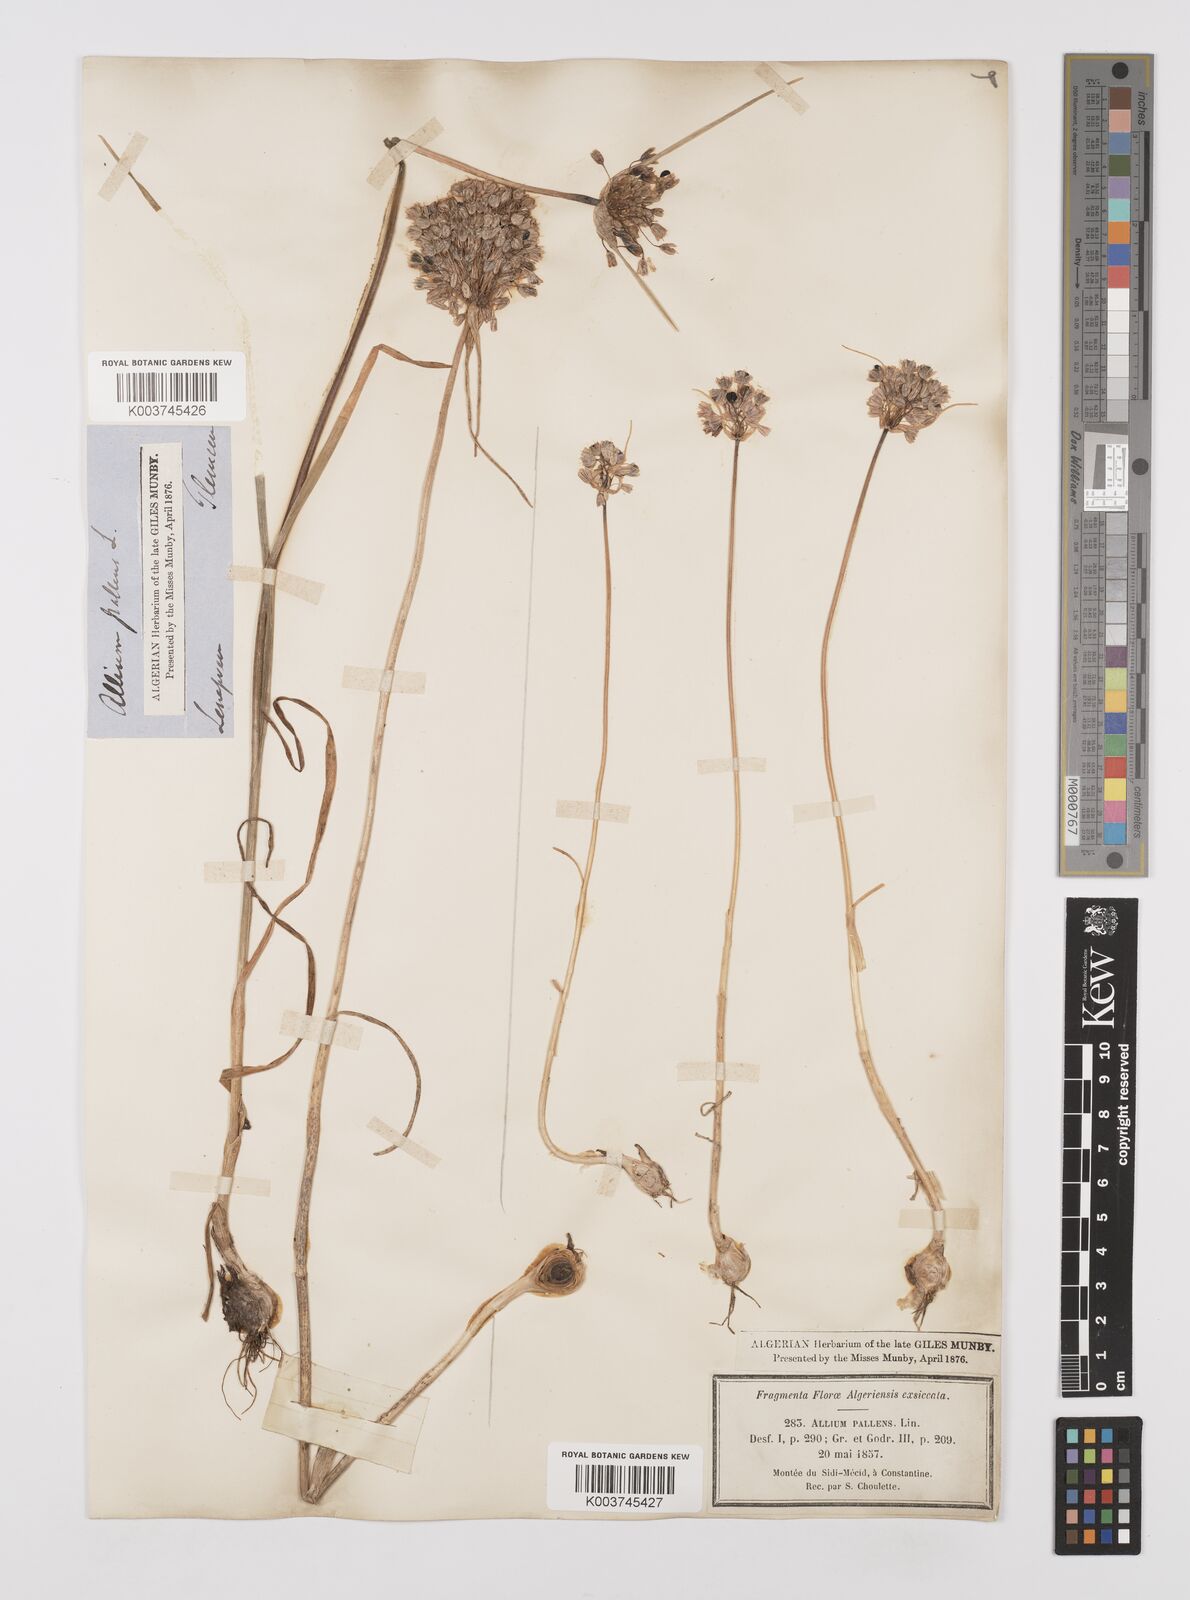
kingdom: Plantae
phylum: Tracheophyta
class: Liliopsida
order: Asparagales
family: Amaryllidaceae
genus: Allium
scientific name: Allium paniculatum
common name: Pale garlic
